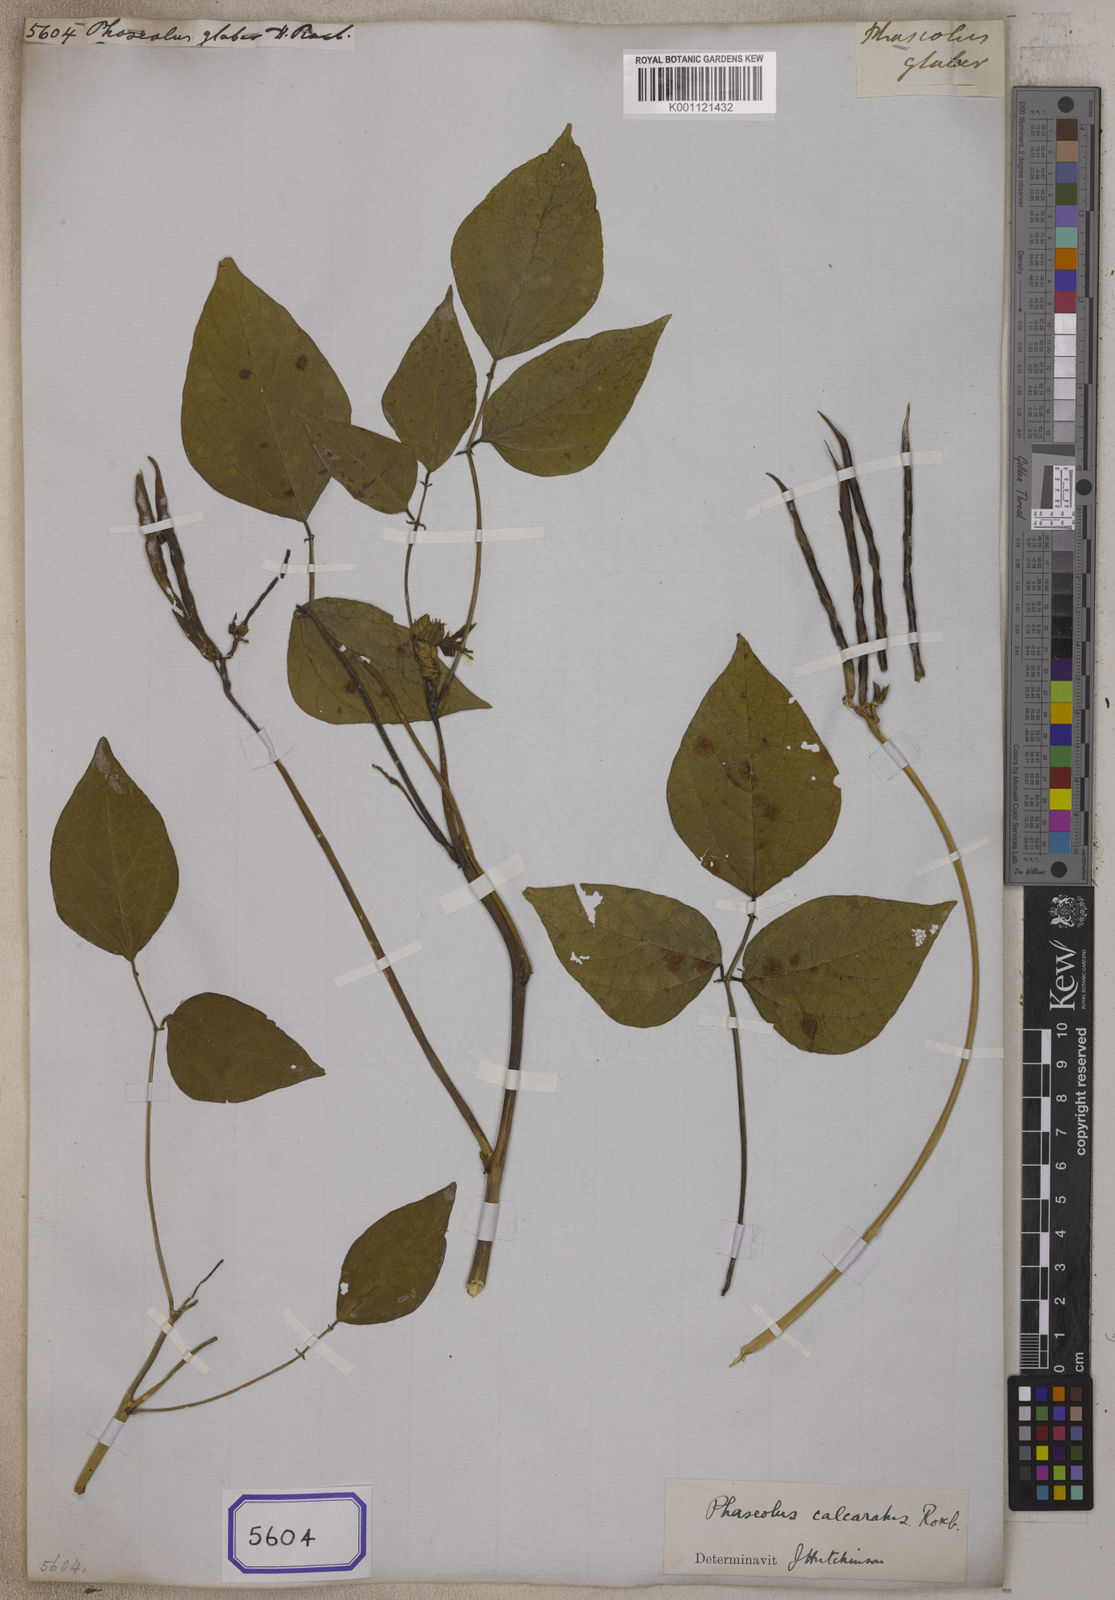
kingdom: Plantae
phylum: Tracheophyta
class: Magnoliopsida
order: Fabales
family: Fabaceae
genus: Vigna
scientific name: Vigna glabrescens
